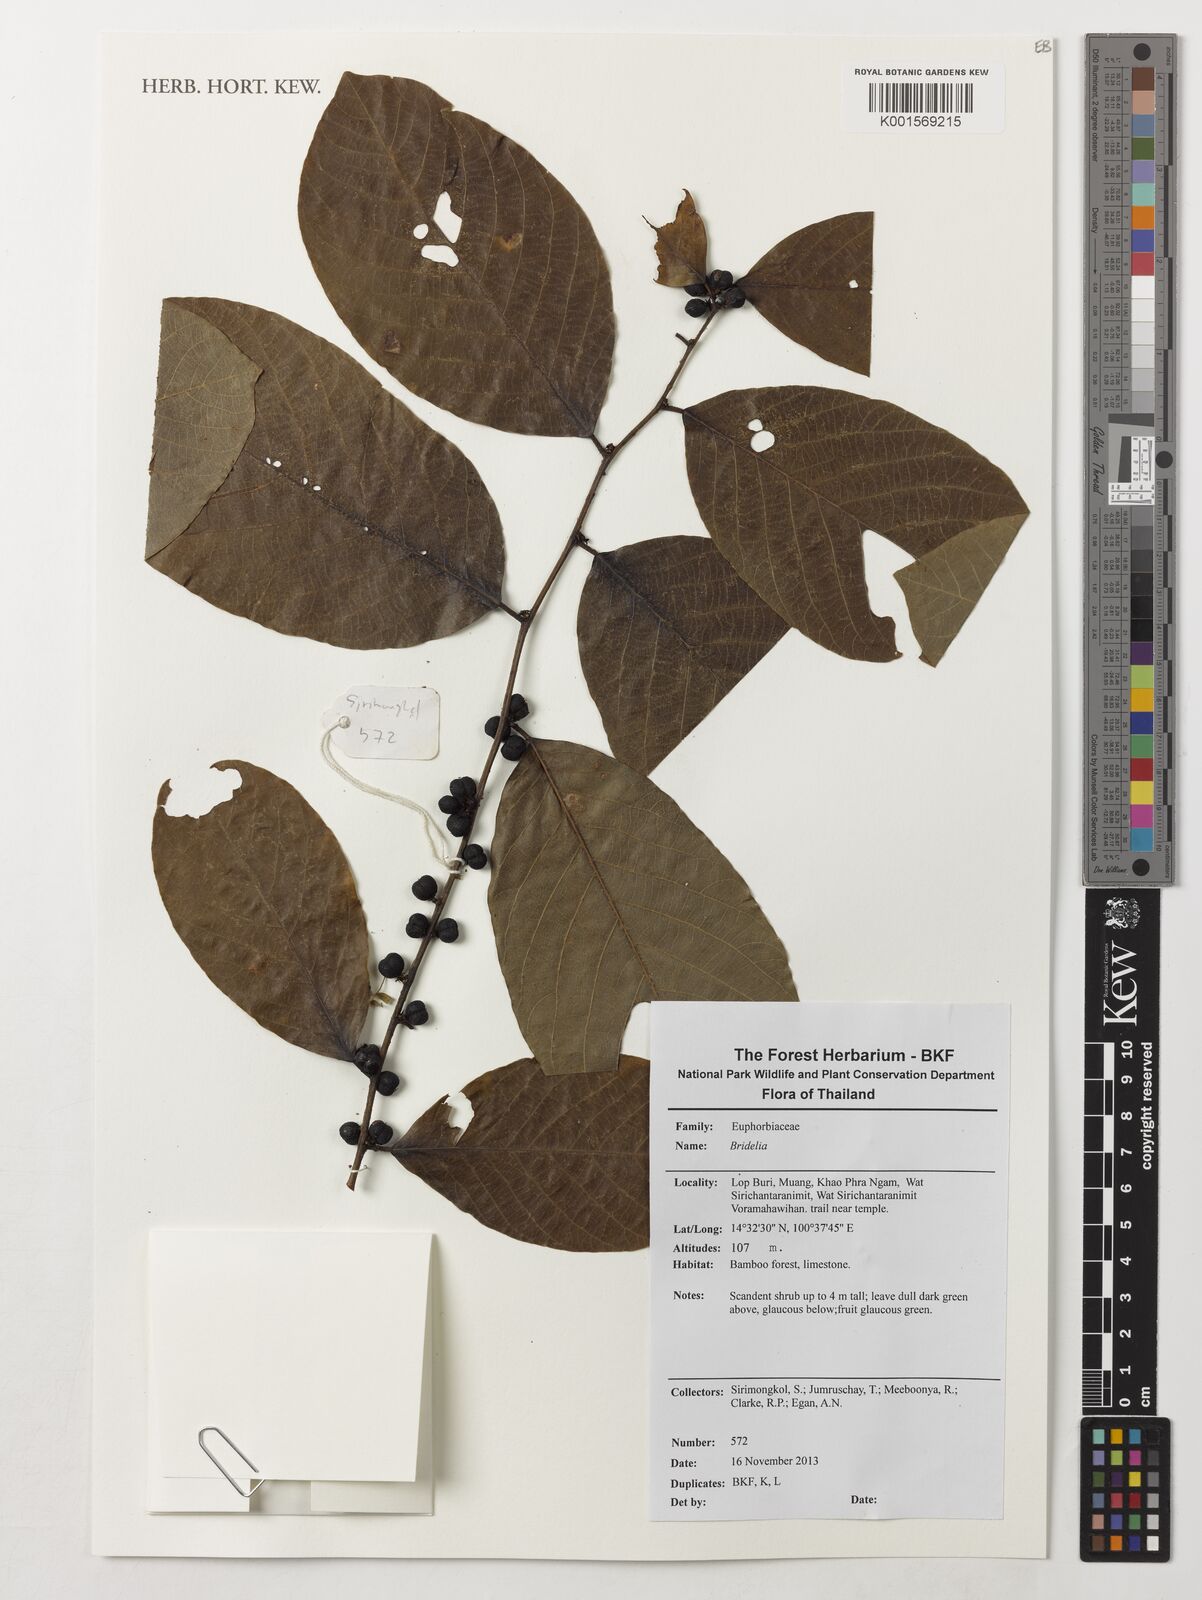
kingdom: Plantae
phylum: Tracheophyta
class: Magnoliopsida
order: Malpighiales
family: Phyllanthaceae
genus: Bridelia
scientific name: Bridelia
